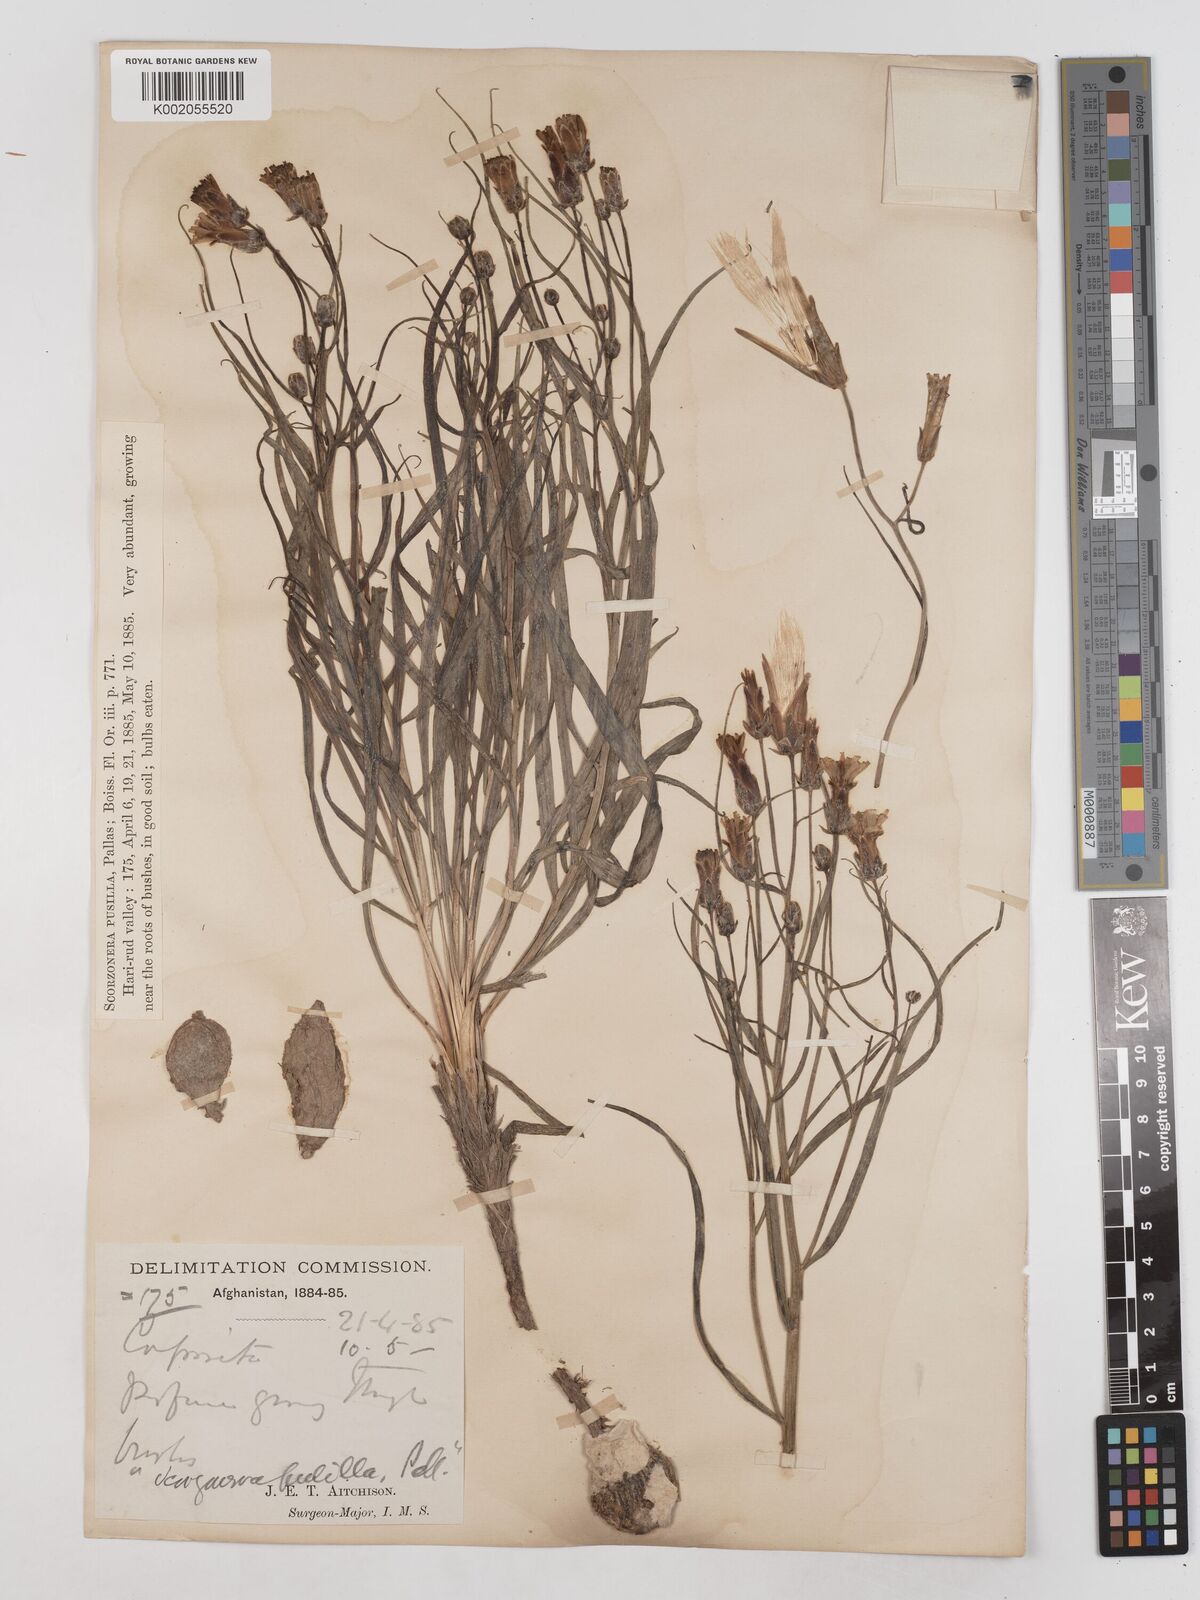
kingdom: Plantae
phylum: Tracheophyta
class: Magnoliopsida
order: Asterales
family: Asteraceae
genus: Takhtajaniantha
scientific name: Takhtajaniantha pusilla
